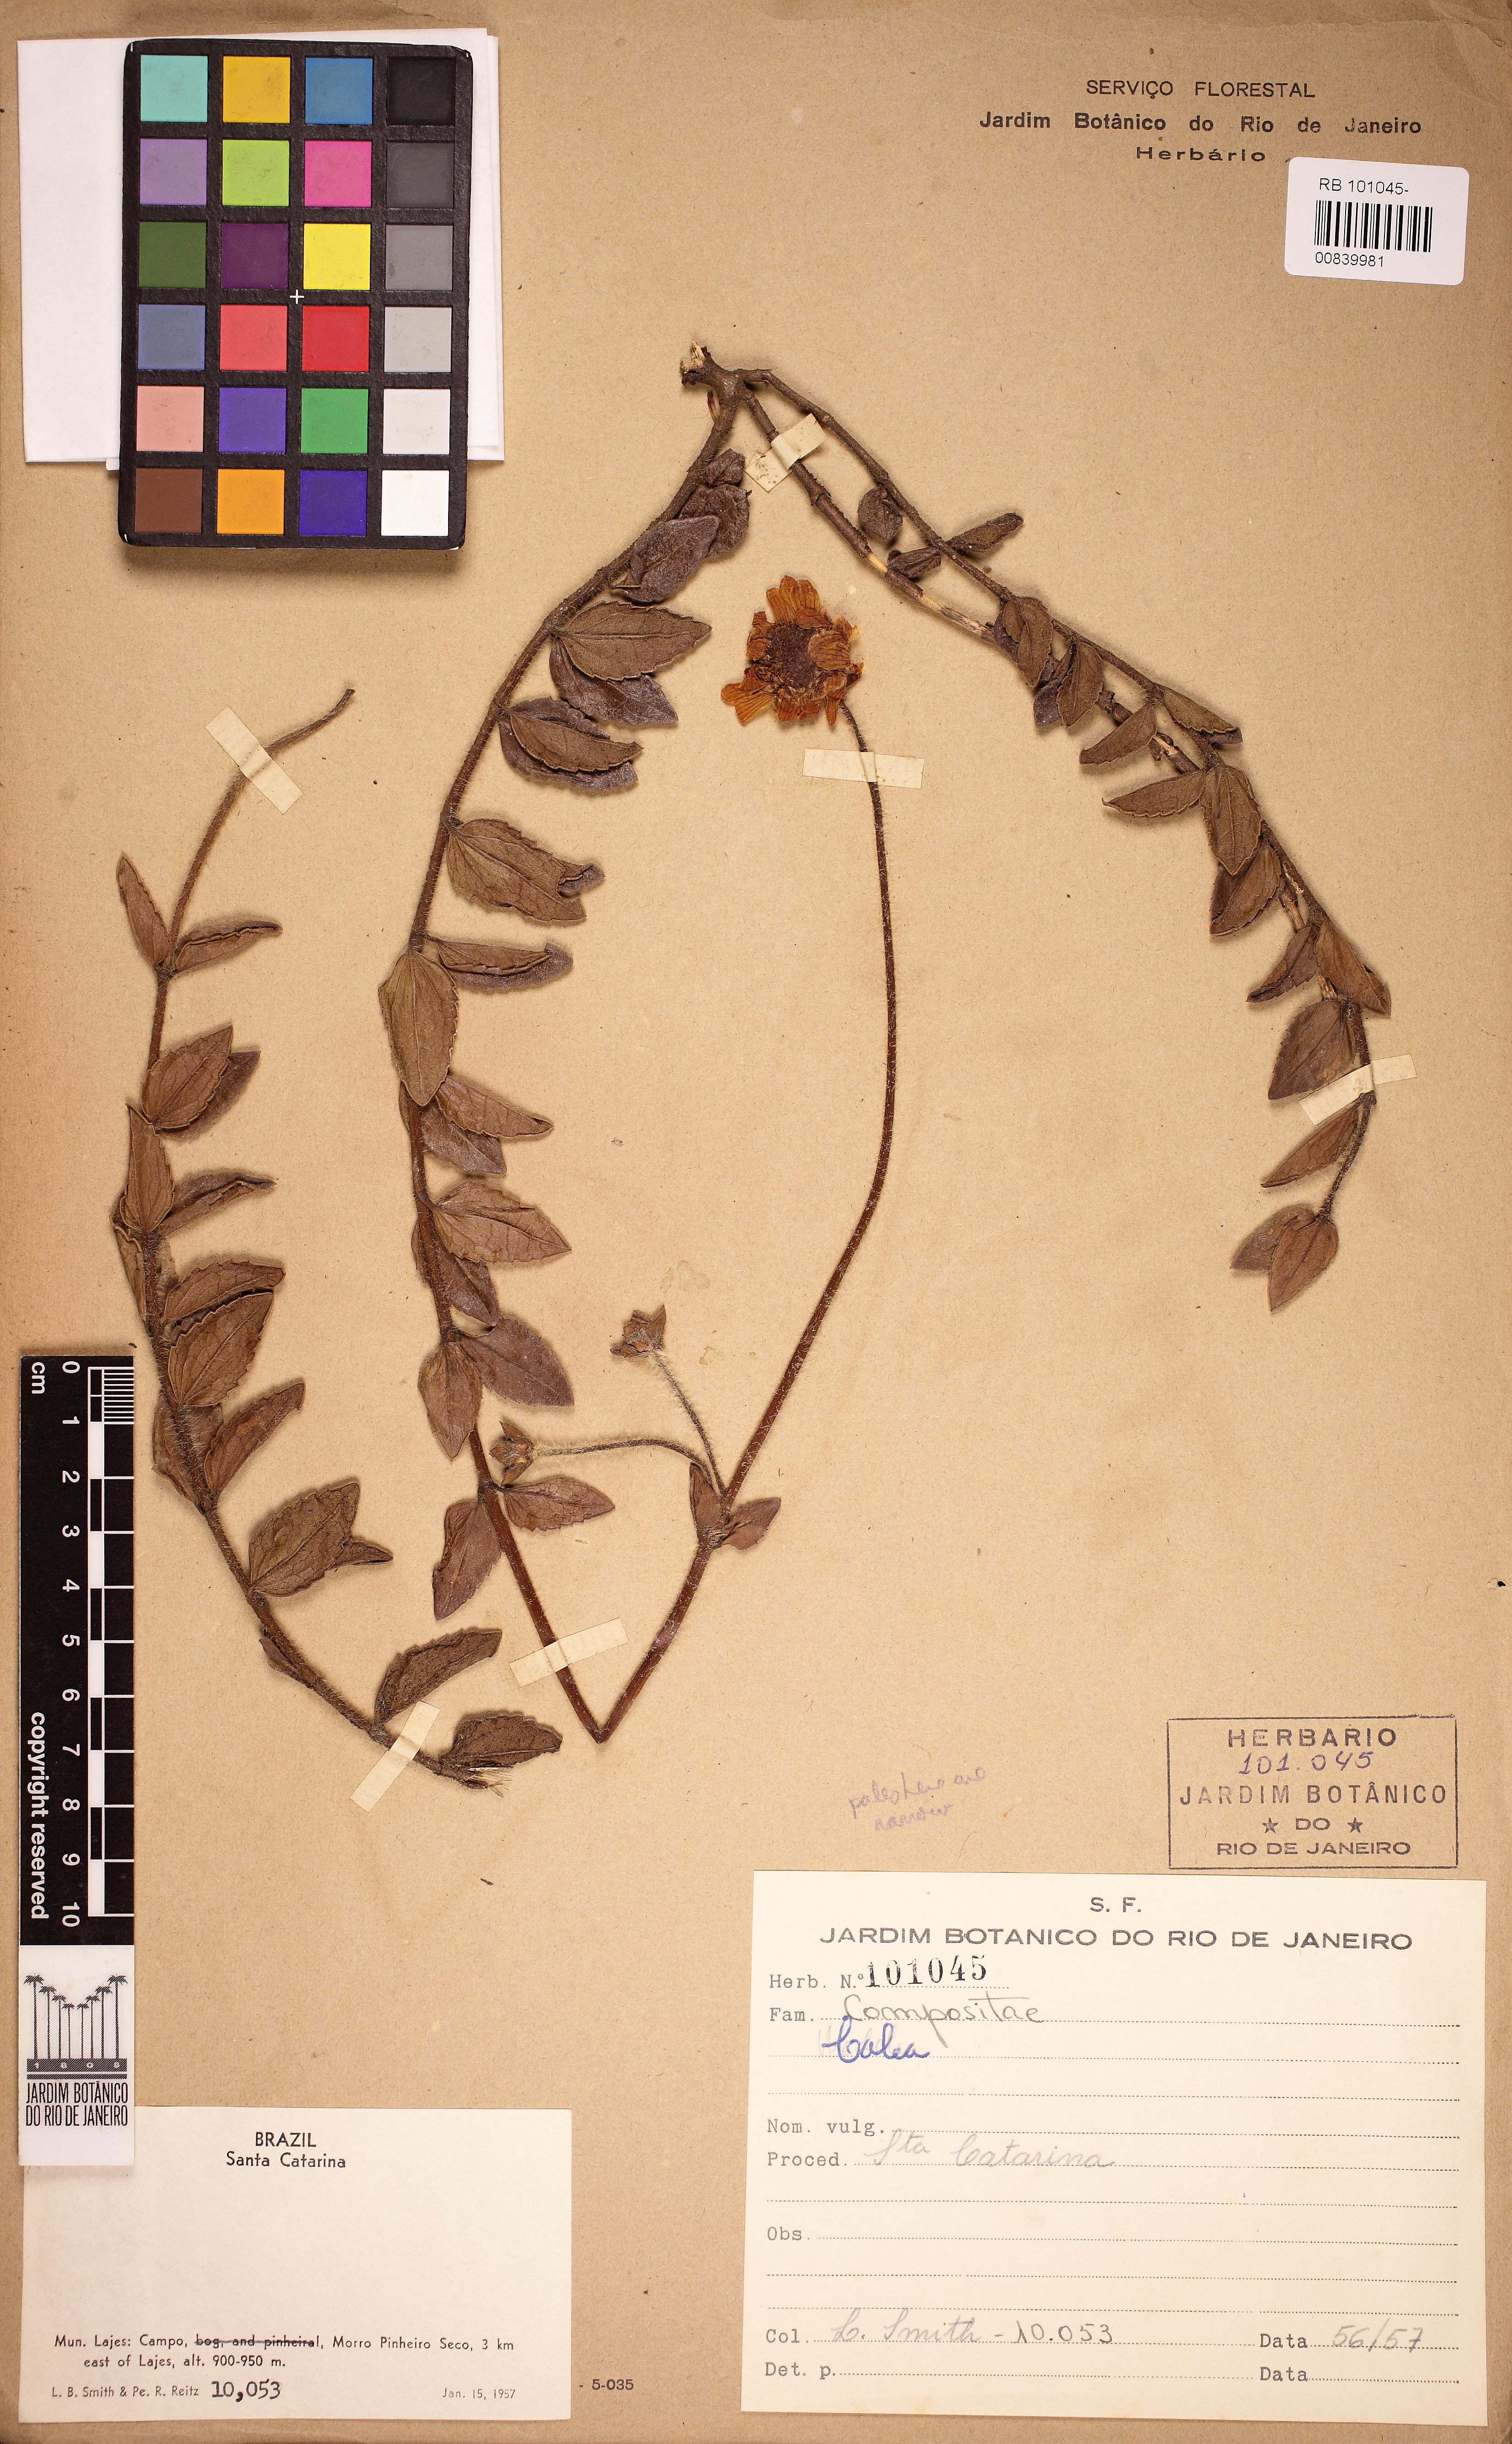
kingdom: Plantae
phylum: Tracheophyta
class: Magnoliopsida
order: Asterales
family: Asteraceae
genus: Calea
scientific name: Calea ilienii
